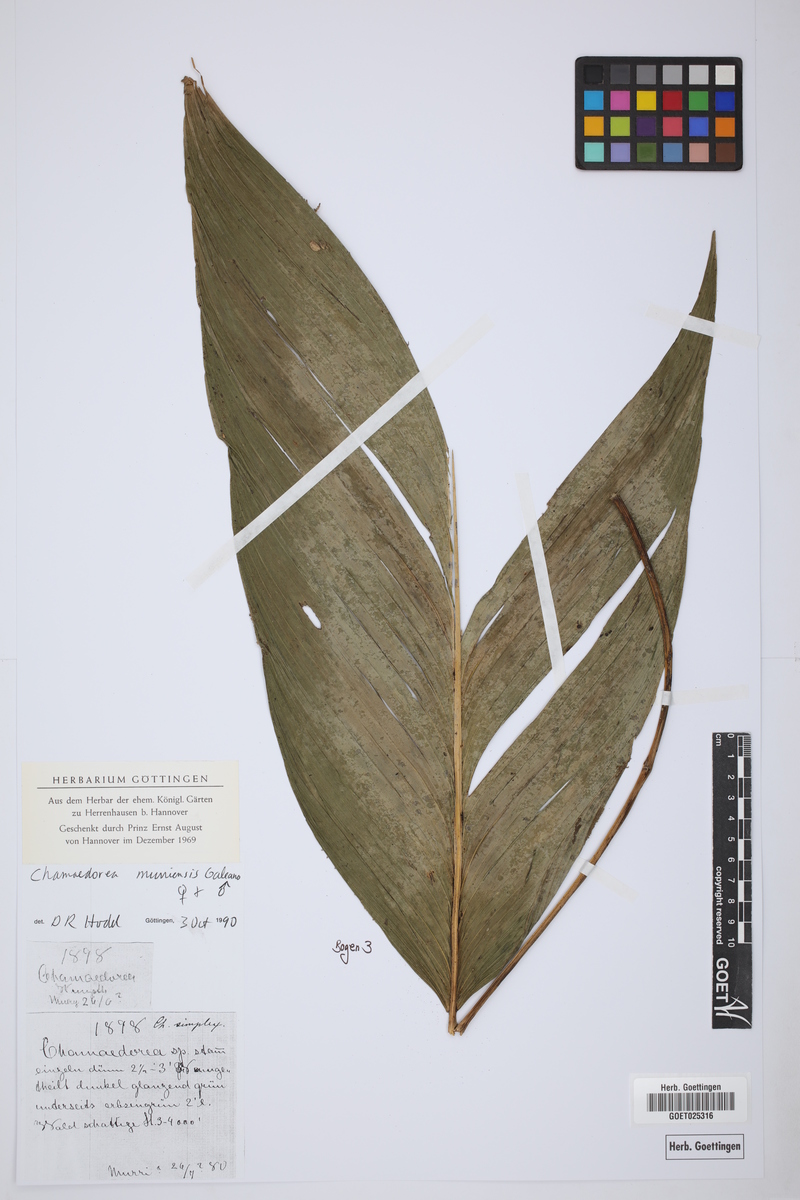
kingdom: Plantae
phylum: Tracheophyta
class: Liliopsida
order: Arecales
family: Arecaceae
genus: Chamaedorea
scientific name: Chamaedorea warscewiczii
